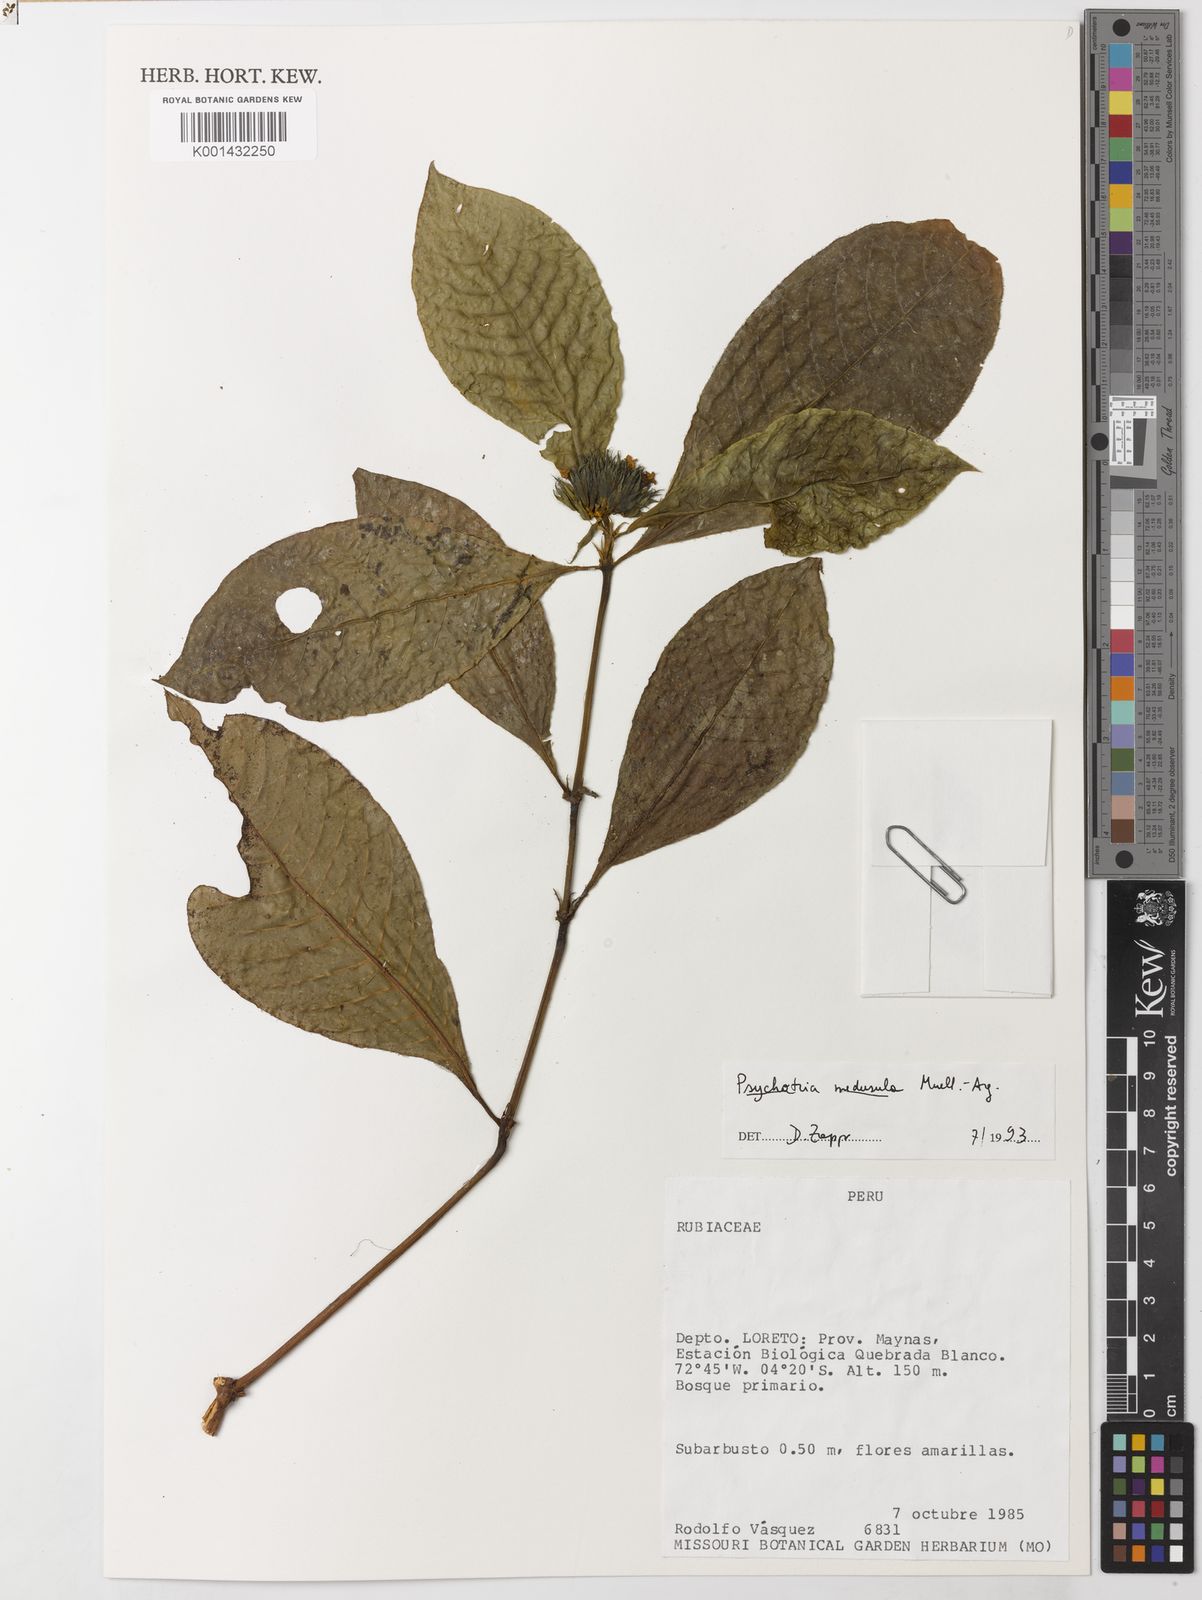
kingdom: Plantae
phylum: Tracheophyta
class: Magnoliopsida
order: Gentianales
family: Rubiaceae
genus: Psychotria
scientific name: Psychotria
